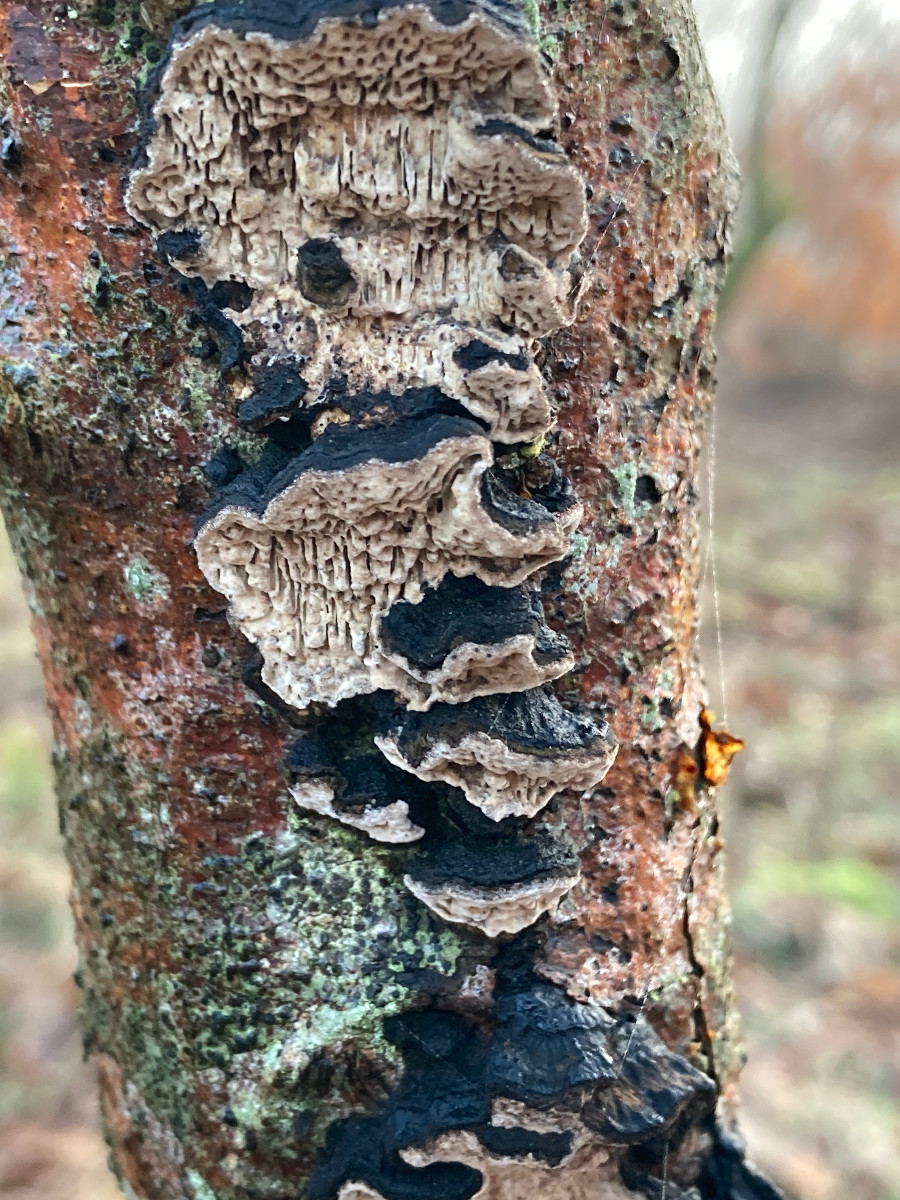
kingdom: Fungi
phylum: Basidiomycota
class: Agaricomycetes
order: Polyporales
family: Polyporaceae
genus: Podofomes
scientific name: Podofomes mollis
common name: blød begporesvamp
